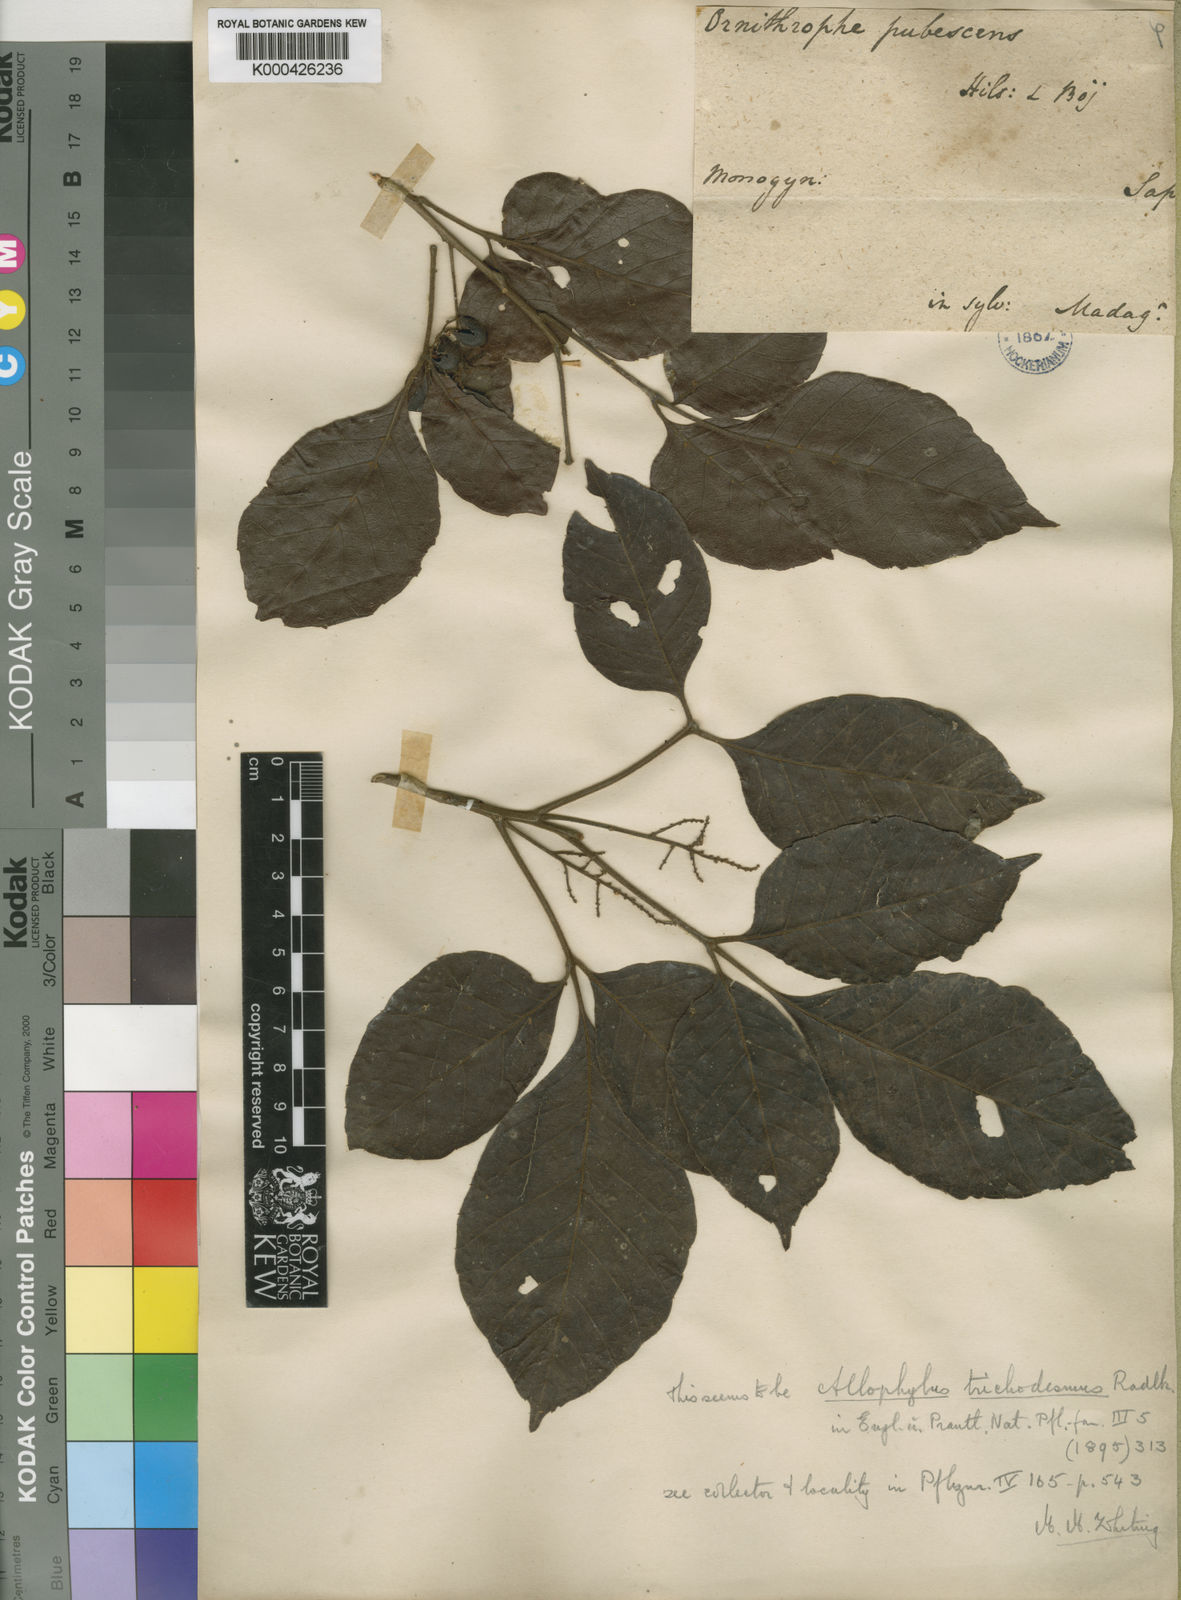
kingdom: Plantae
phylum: Tracheophyta
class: Magnoliopsida
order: Sapindales
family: Sapindaceae
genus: Allophylus
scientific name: Allophylus trichodesmus
